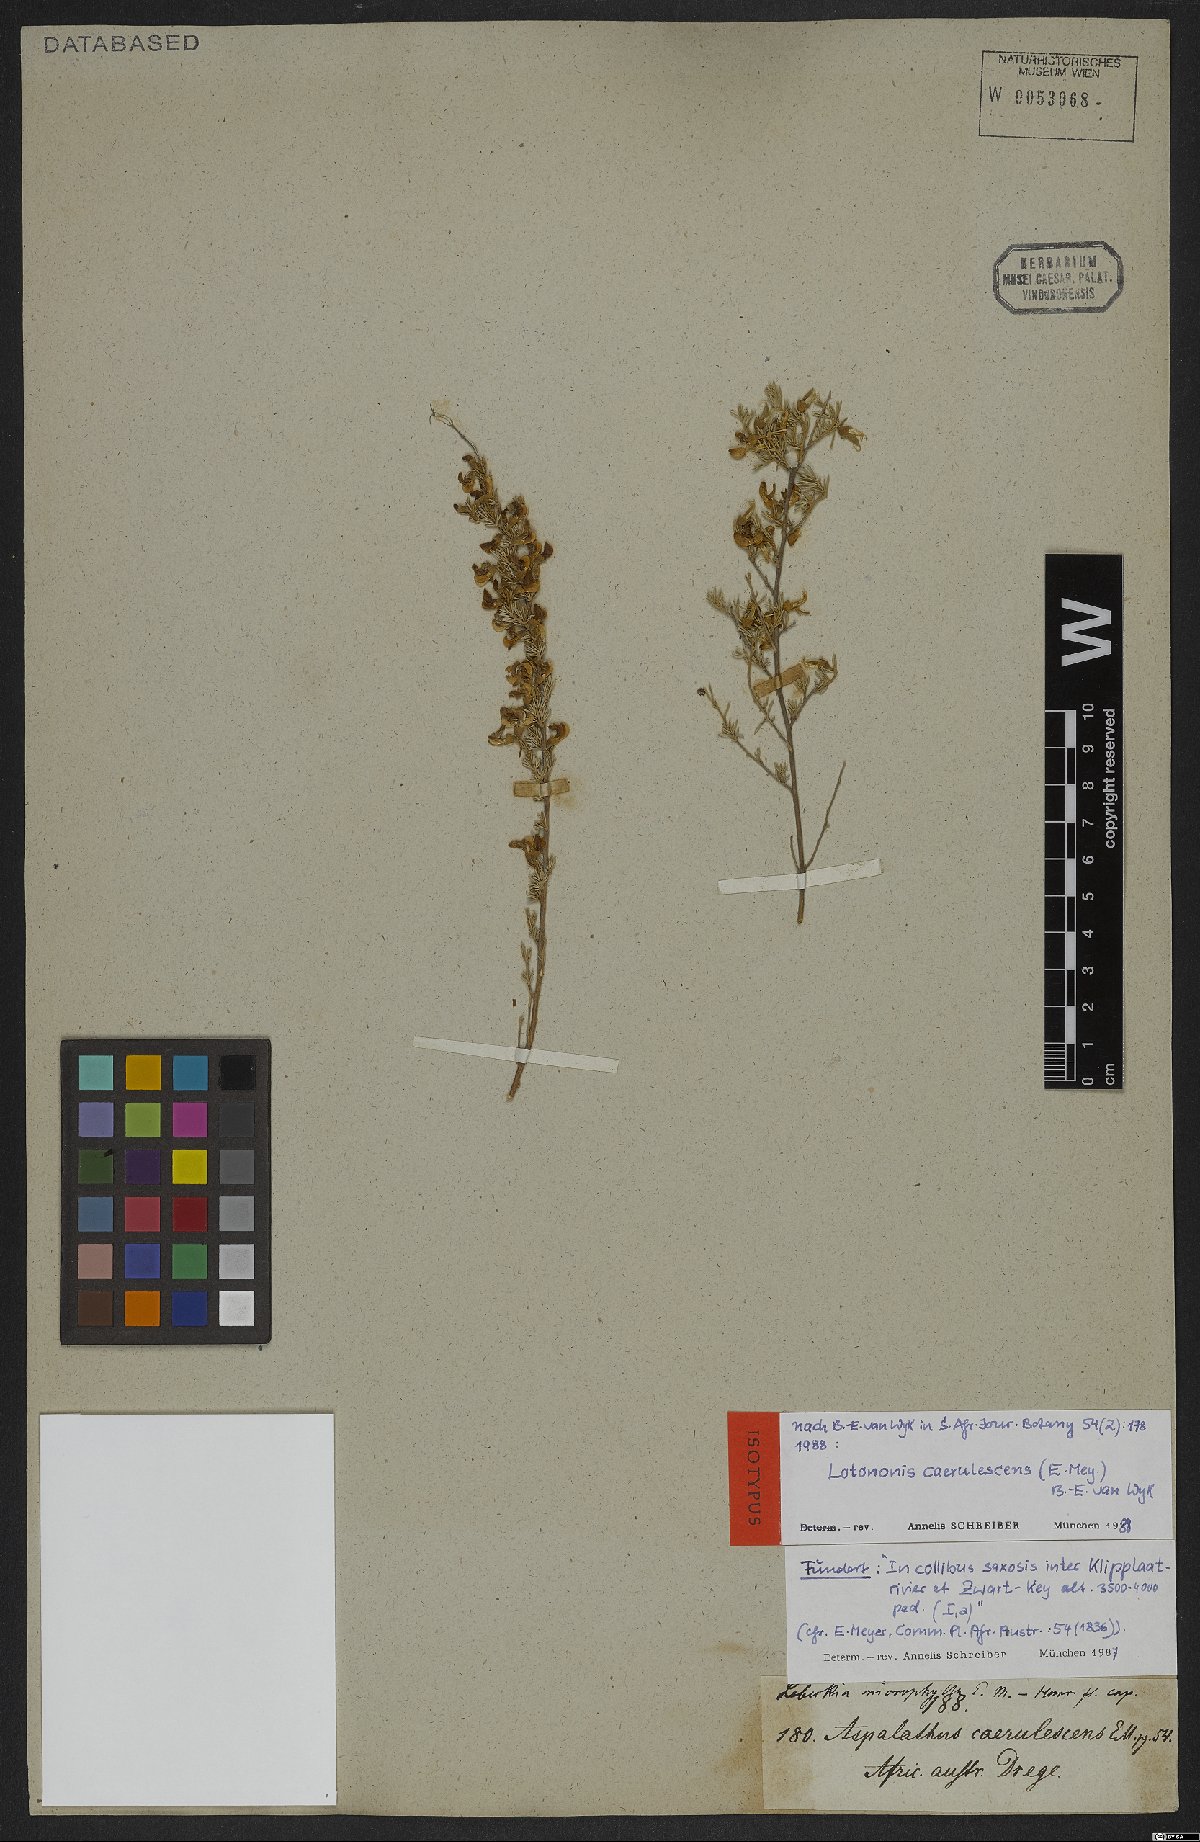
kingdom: Plantae
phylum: Tracheophyta
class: Magnoliopsida
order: Fabales
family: Fabaceae
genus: Lotononis
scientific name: Lotononis caerulescens
